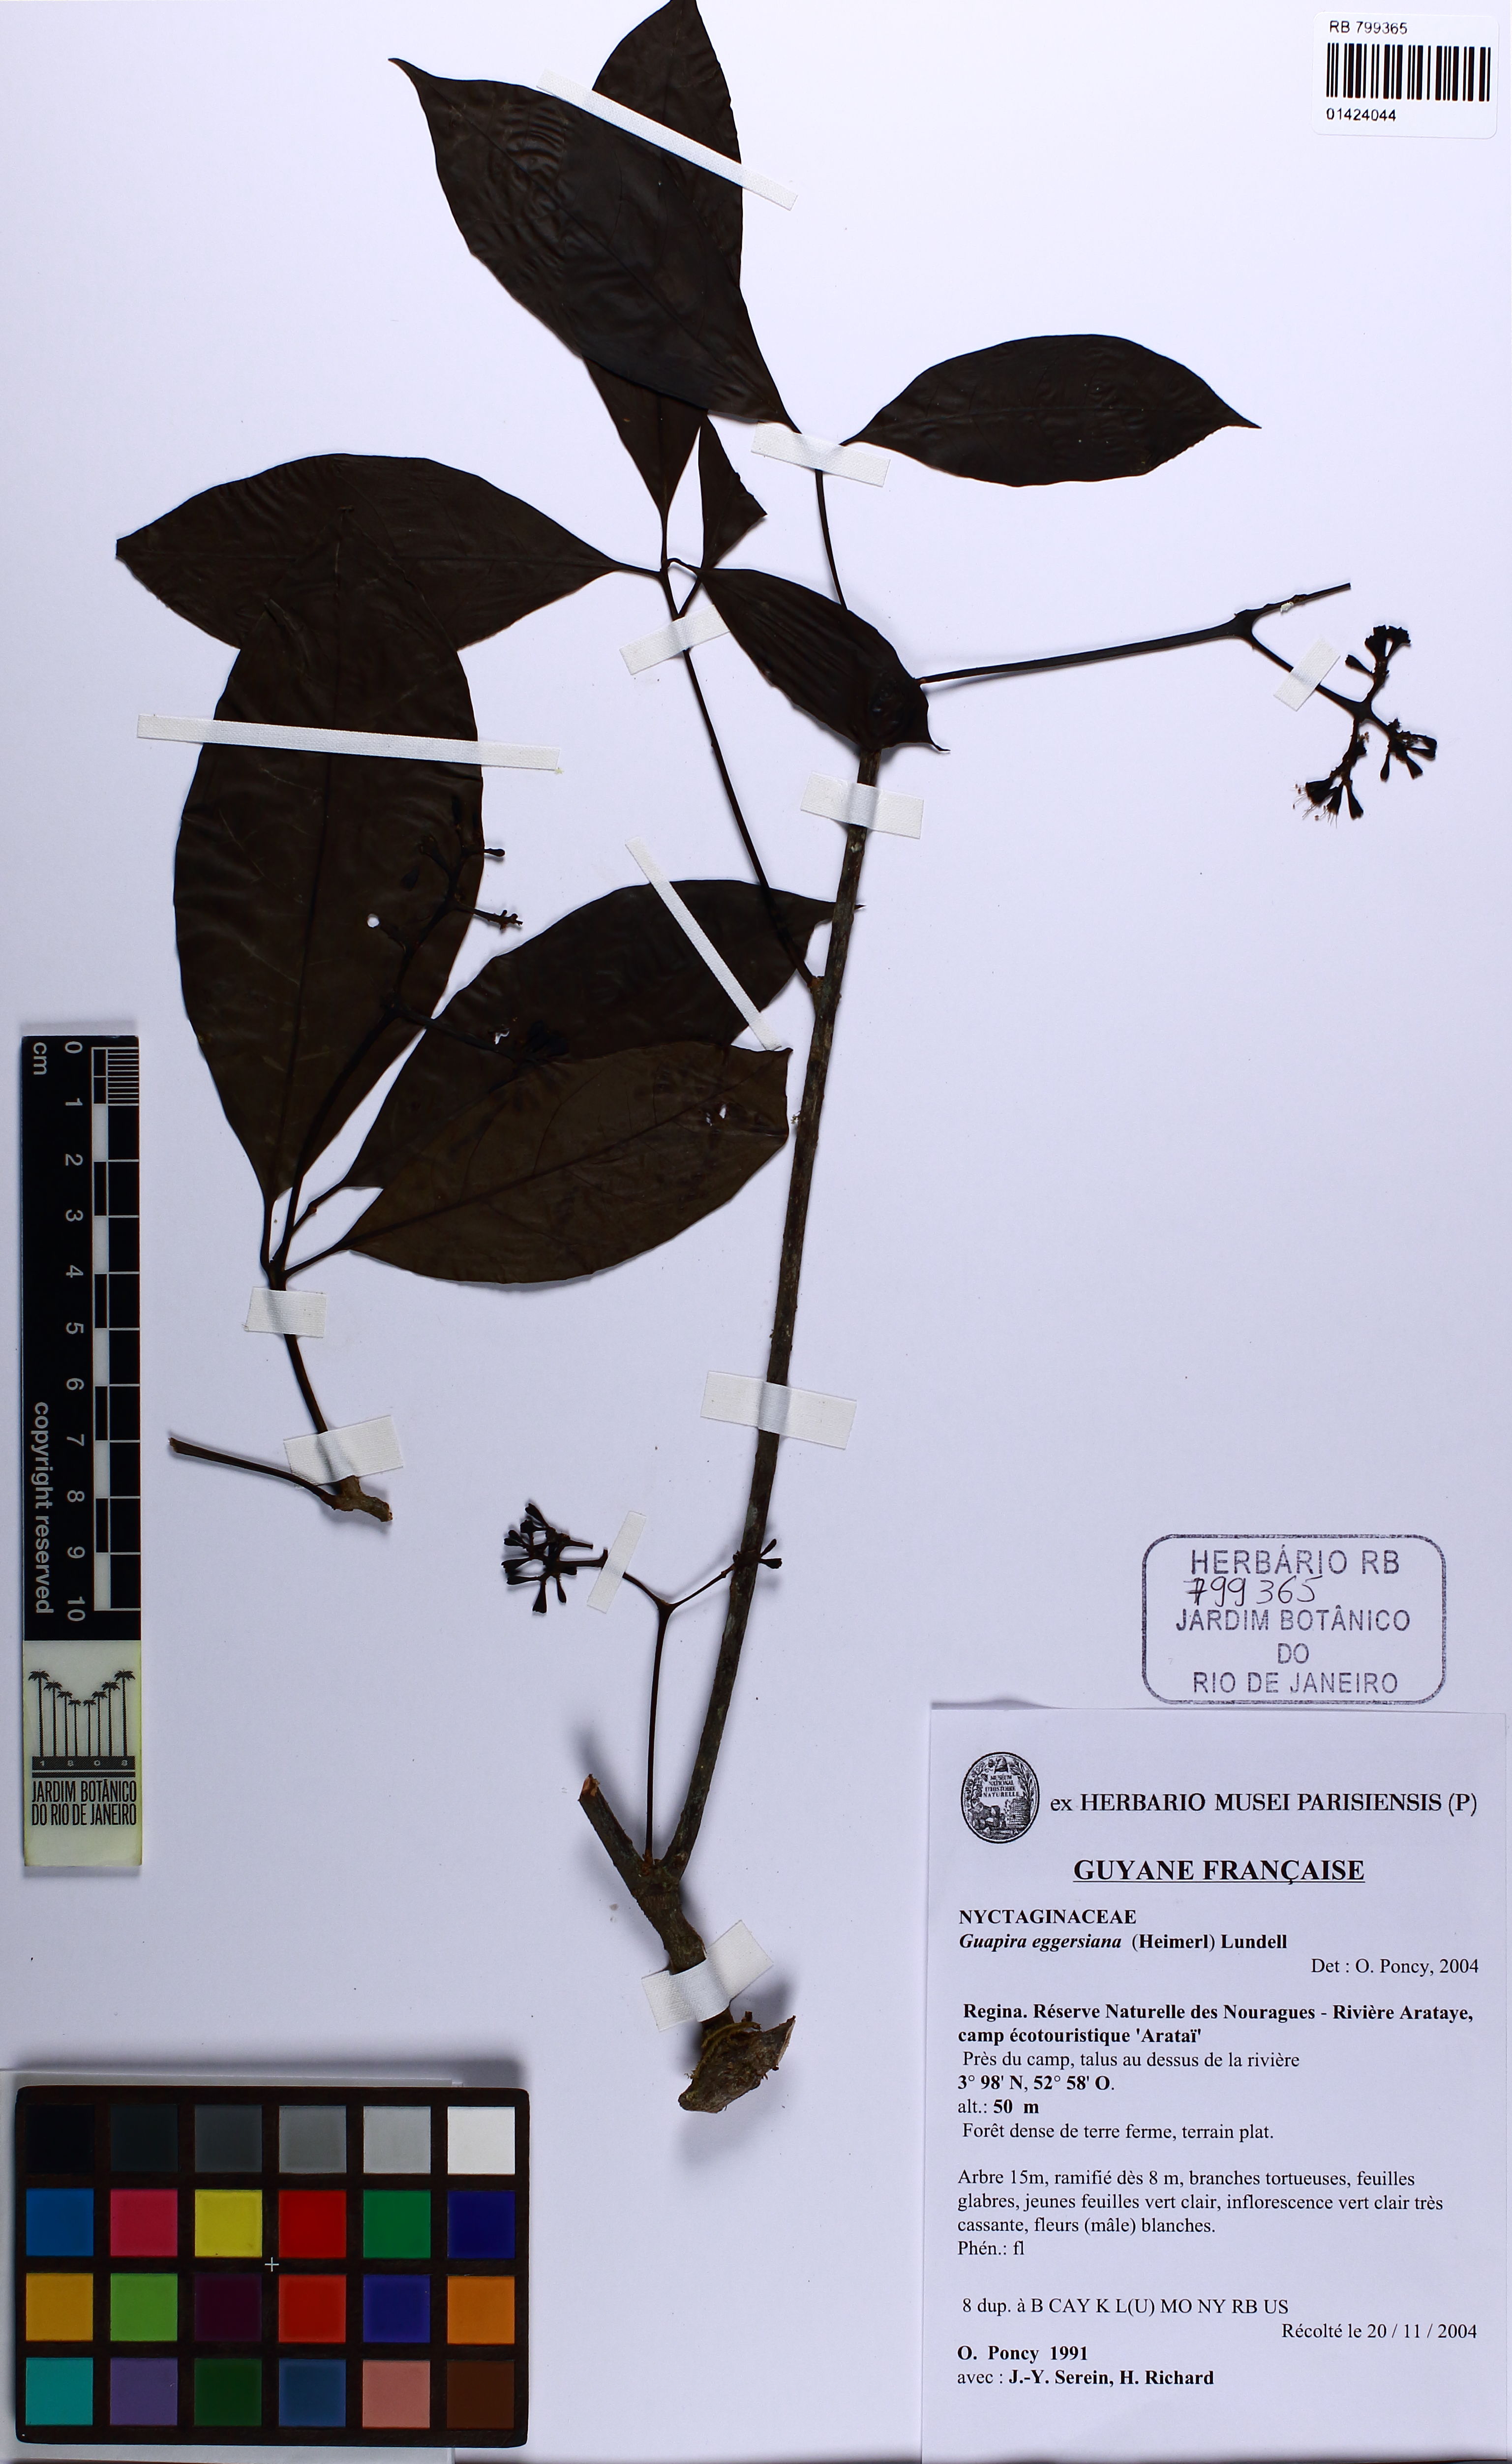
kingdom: Plantae
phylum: Tracheophyta
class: Magnoliopsida
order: Caryophyllales
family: Nyctaginaceae
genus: Guapira
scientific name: Guapira eggersiana
